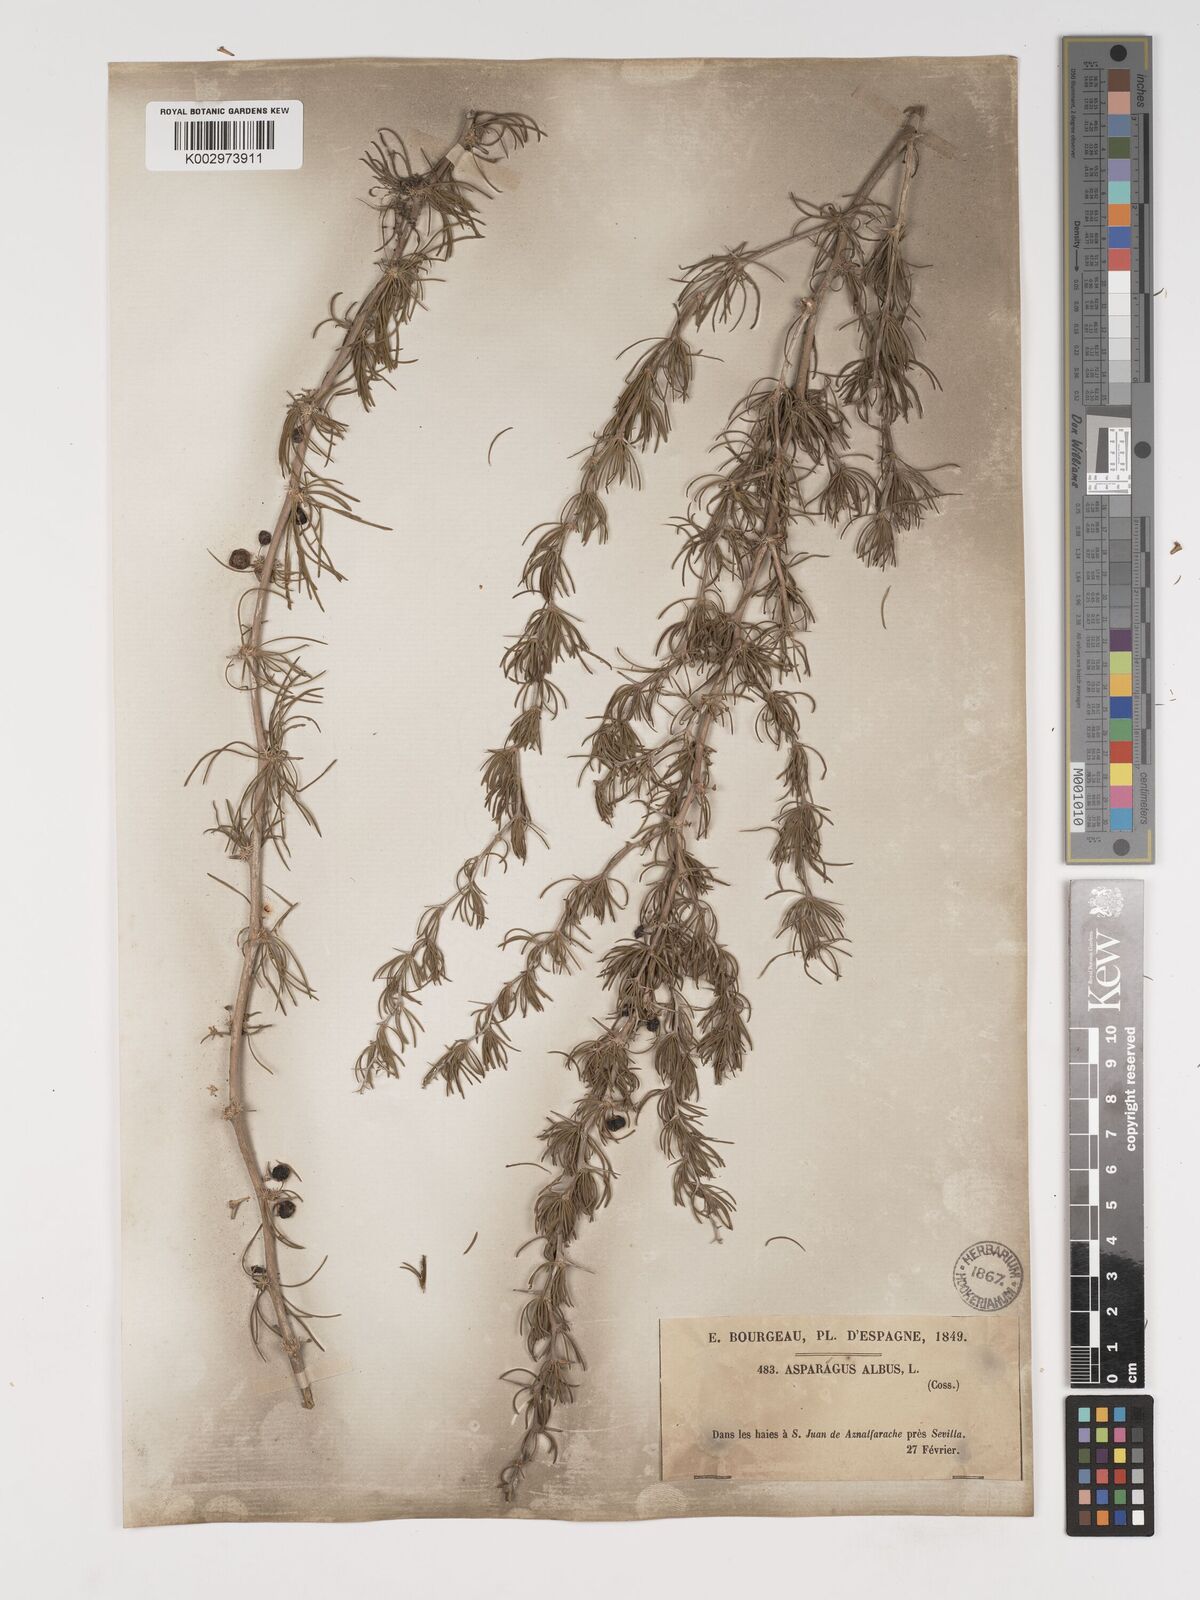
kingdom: Plantae
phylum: Tracheophyta
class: Liliopsida
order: Asparagales
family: Asparagaceae
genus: Asparagus
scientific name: Asparagus albus
